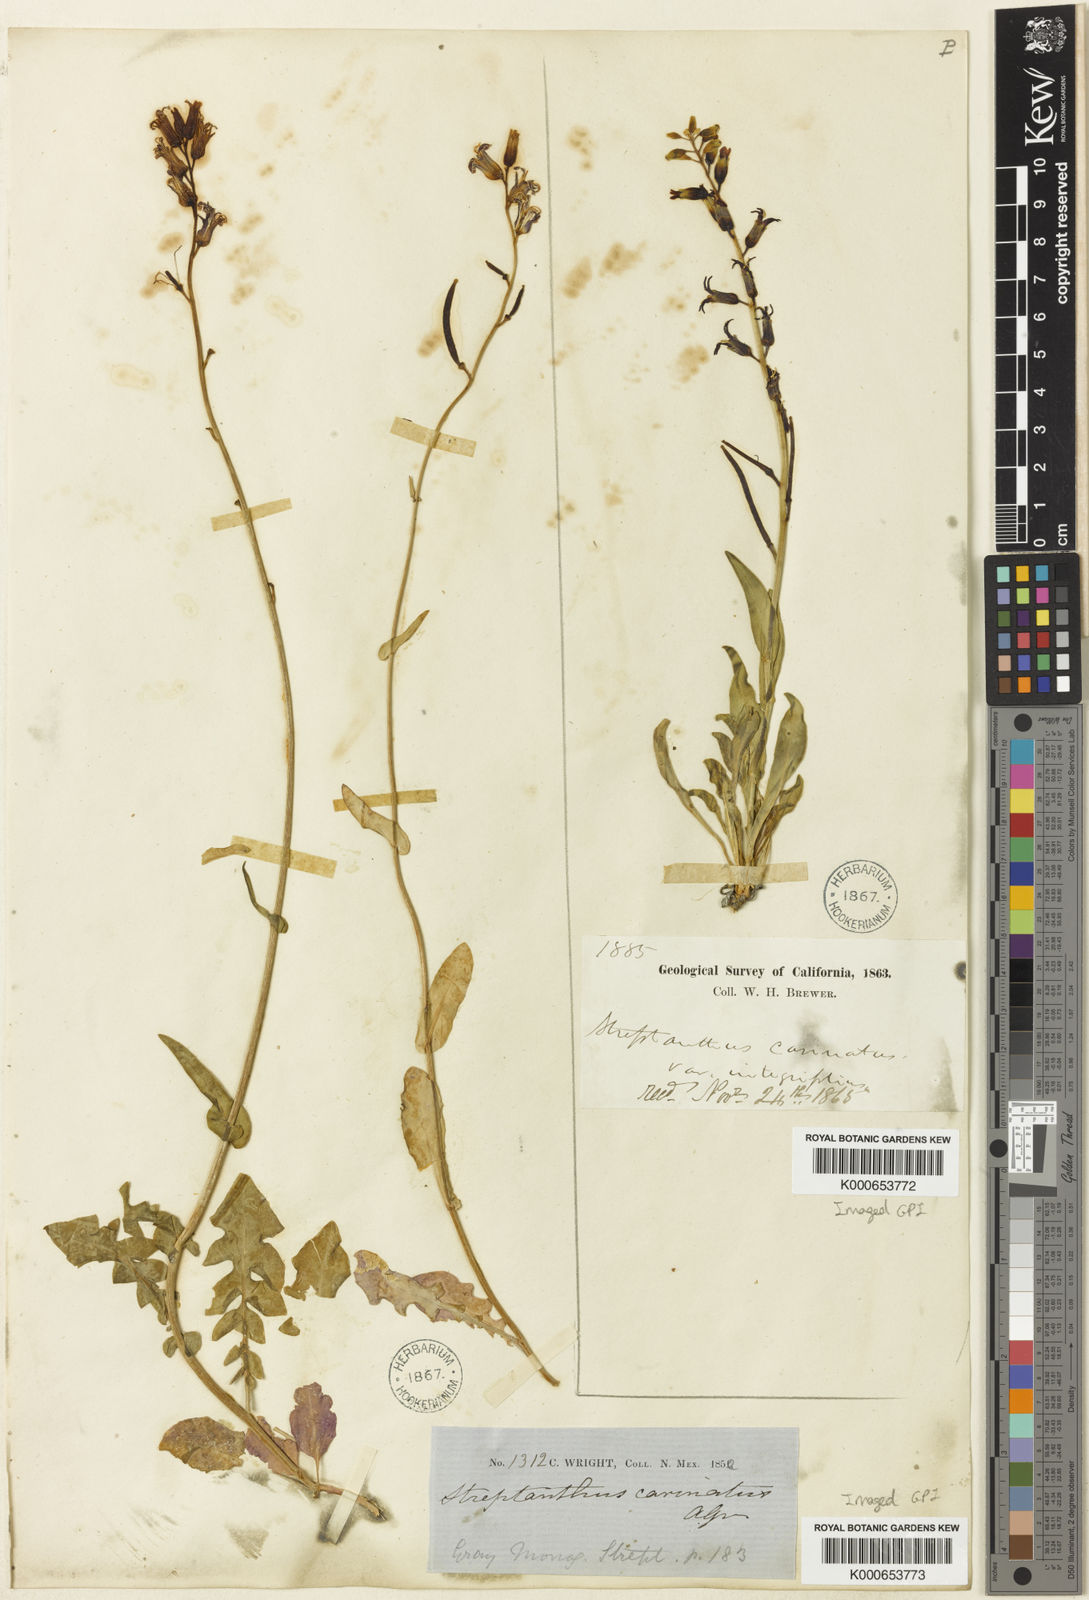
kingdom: Plantae
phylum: Tracheophyta
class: Magnoliopsida
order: Brassicales
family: Brassicaceae
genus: Streptanthus
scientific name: Streptanthus carinatus
